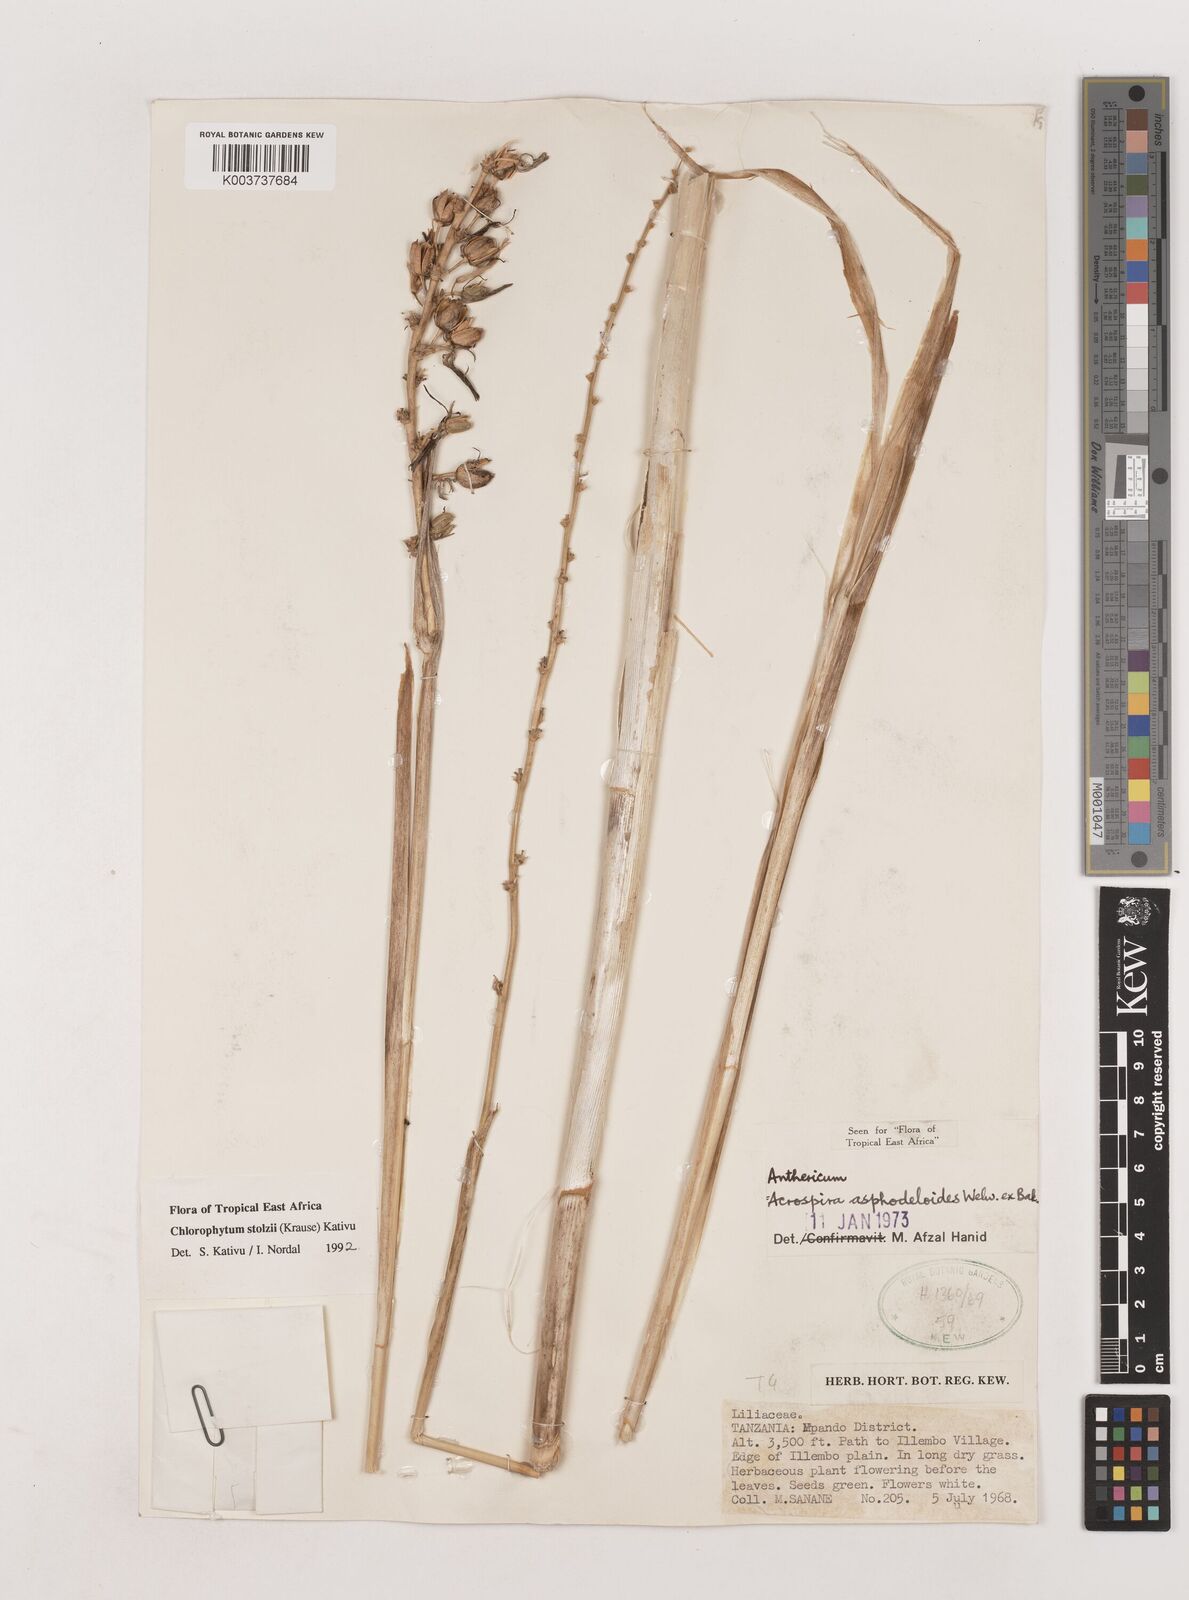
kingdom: Plantae
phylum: Tracheophyta
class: Liliopsida
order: Asparagales
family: Asparagaceae
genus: Chlorophytum
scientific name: Chlorophytum stolzii
